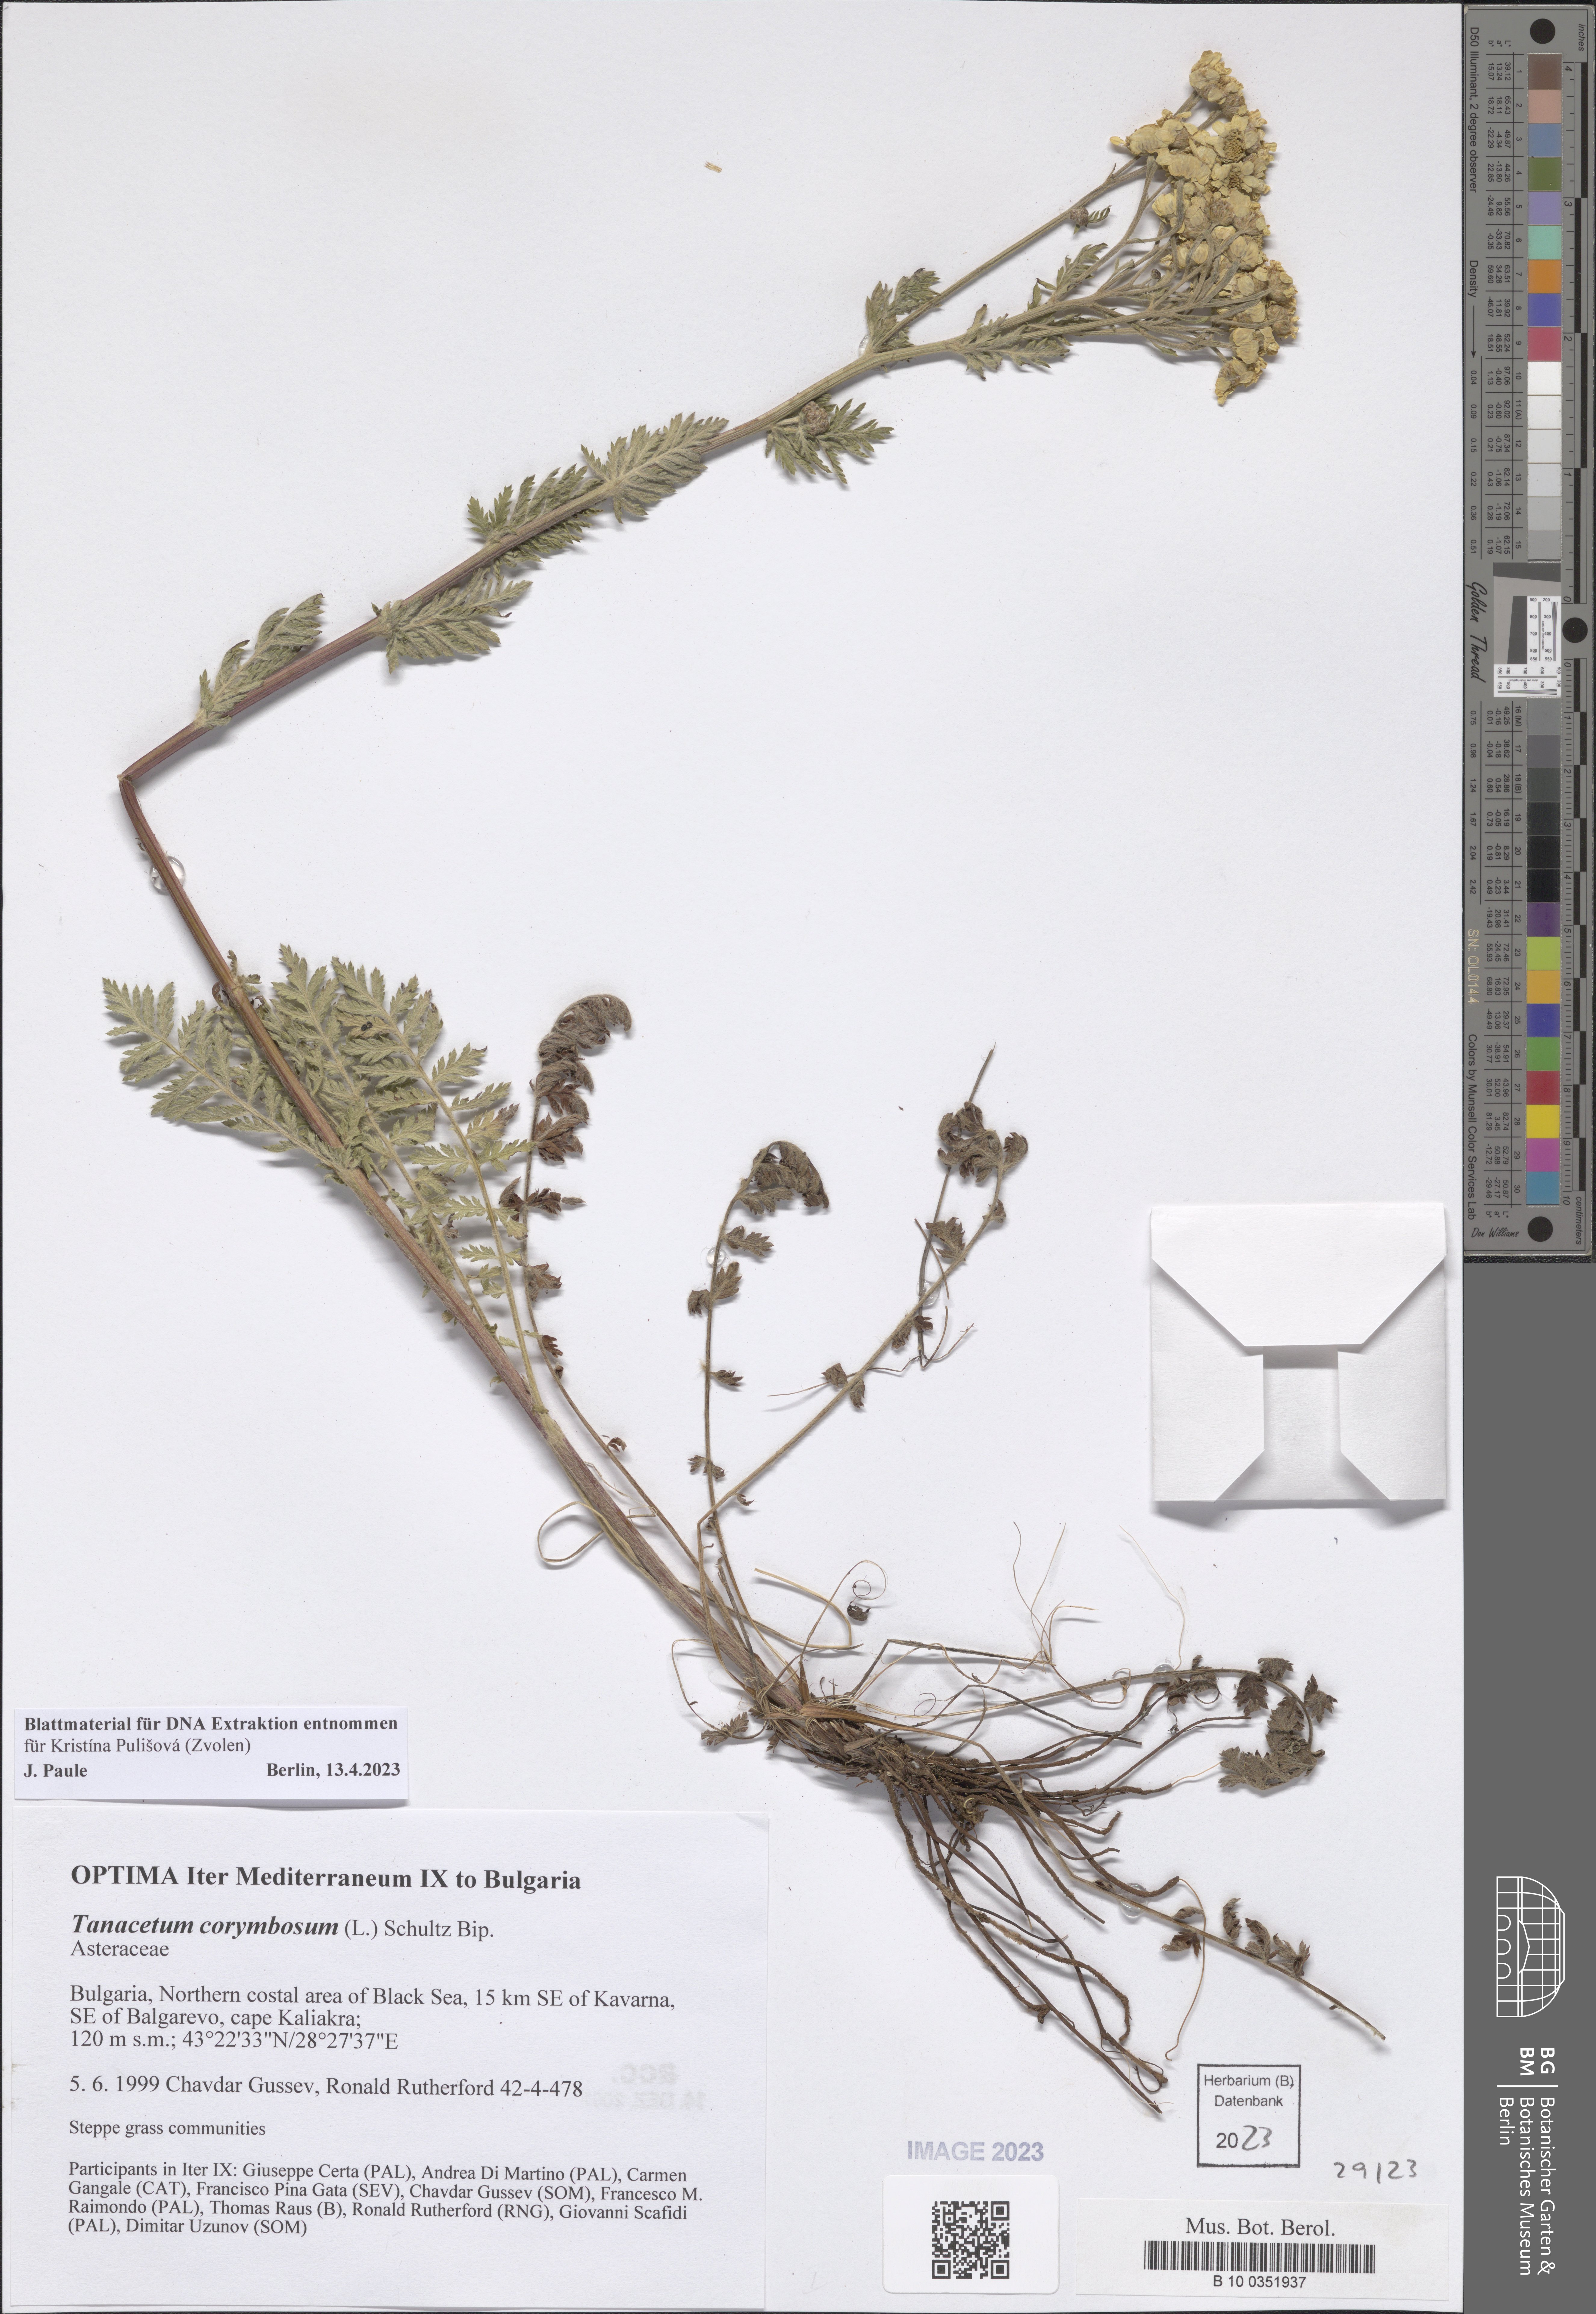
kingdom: Plantae
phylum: Tracheophyta
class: Magnoliopsida
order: Asterales
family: Asteraceae
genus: Tanacetum
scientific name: Tanacetum corymbosum
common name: Scentless feverfew
